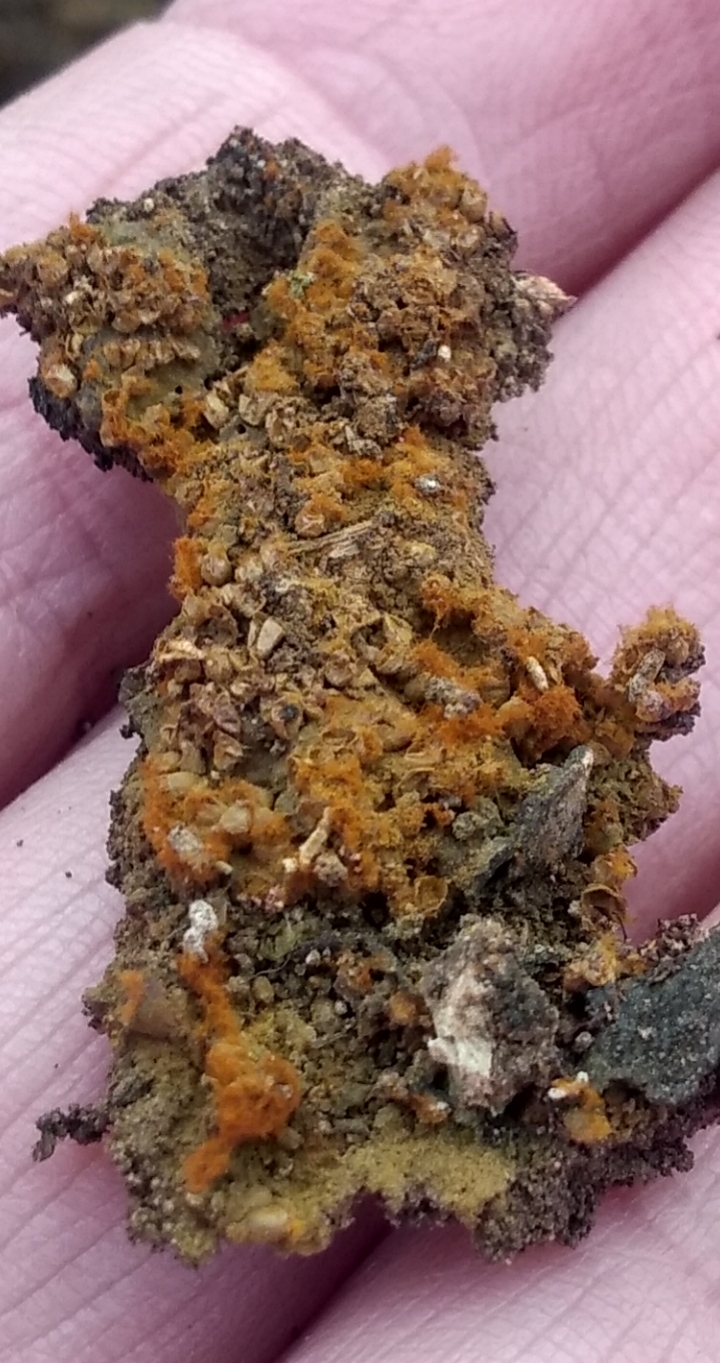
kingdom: Protozoa
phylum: Mycetozoa
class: Myxomycetes
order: Trichiales
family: Trichiaceae
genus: Trichia
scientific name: Trichia varia
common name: foranderlig hårbold
